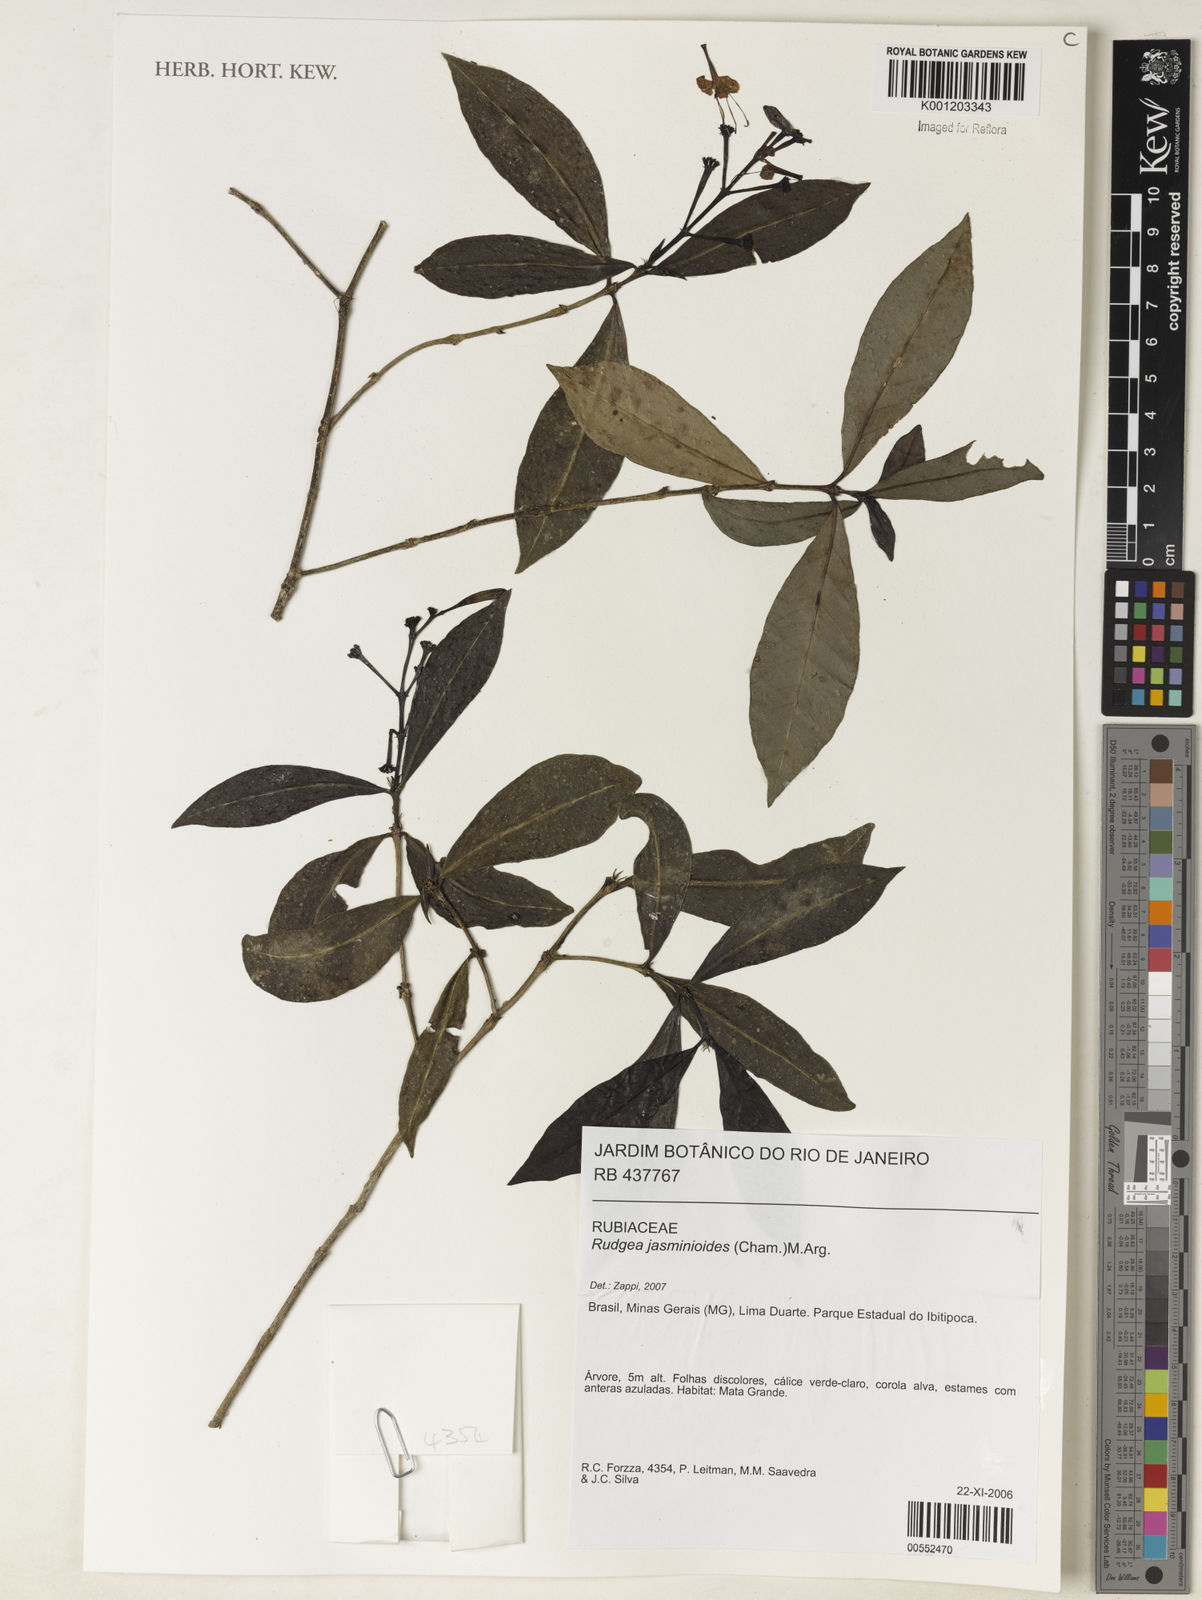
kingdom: Plantae
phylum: Tracheophyta
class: Magnoliopsida
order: Gentianales
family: Rubiaceae
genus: Rudgea
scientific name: Rudgea
